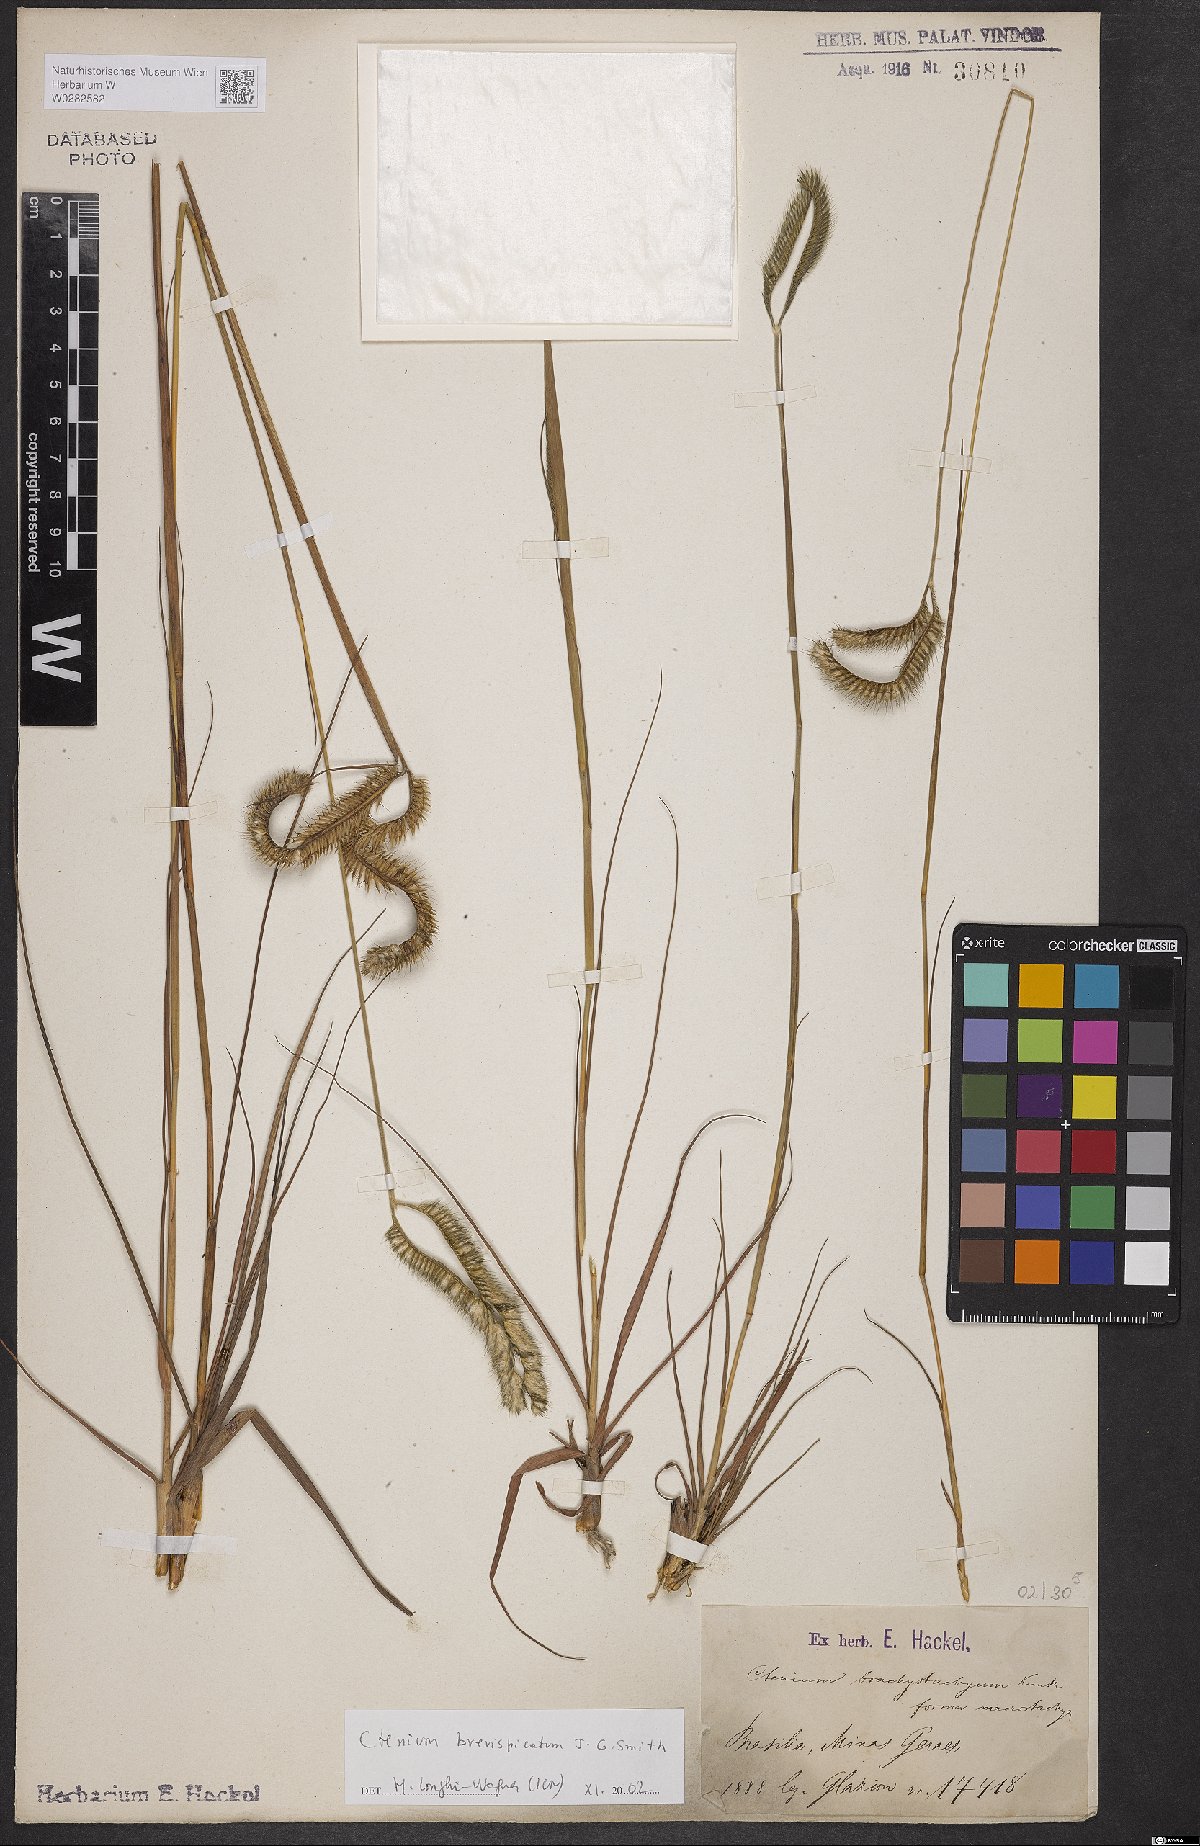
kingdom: Plantae
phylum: Tracheophyta
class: Liliopsida
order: Poales
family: Poaceae
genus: Ctenium
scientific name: Ctenium brevispicatum
